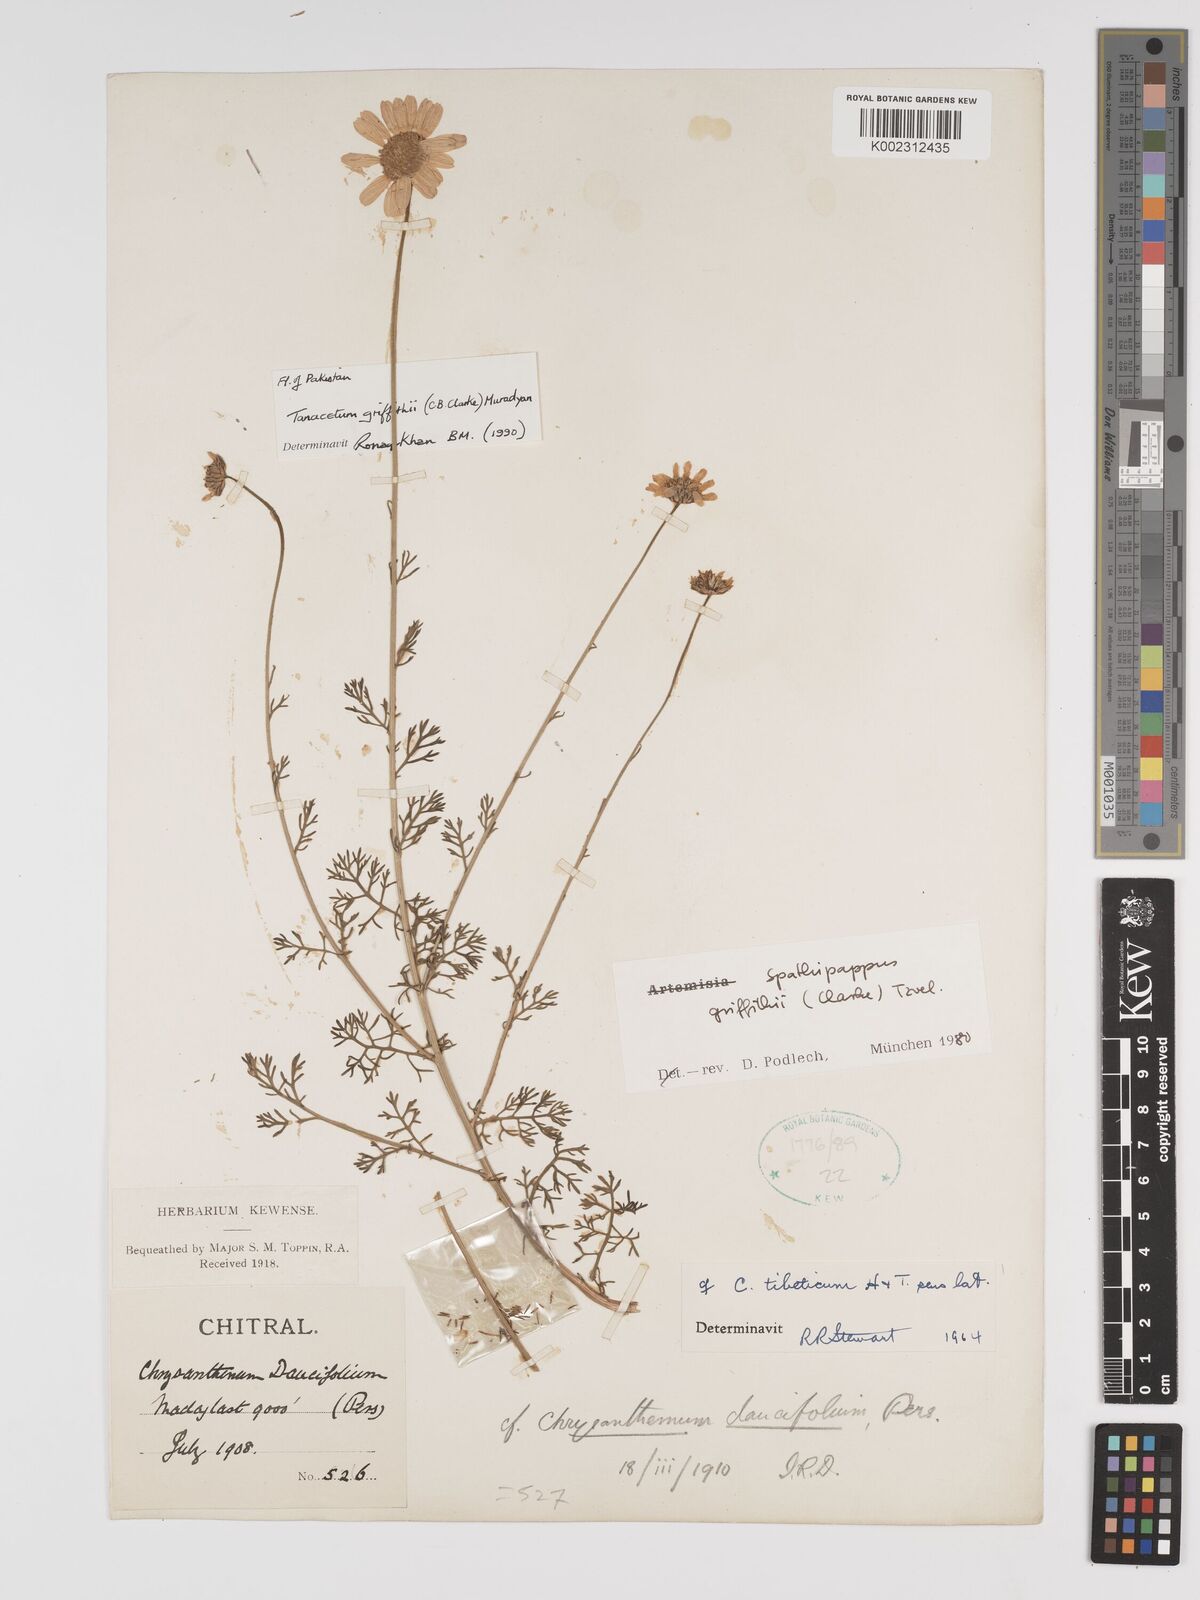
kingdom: Plantae
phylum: Tracheophyta
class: Magnoliopsida
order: Asterales
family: Asteraceae
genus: Tanacetum
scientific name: Tanacetum griffithii
